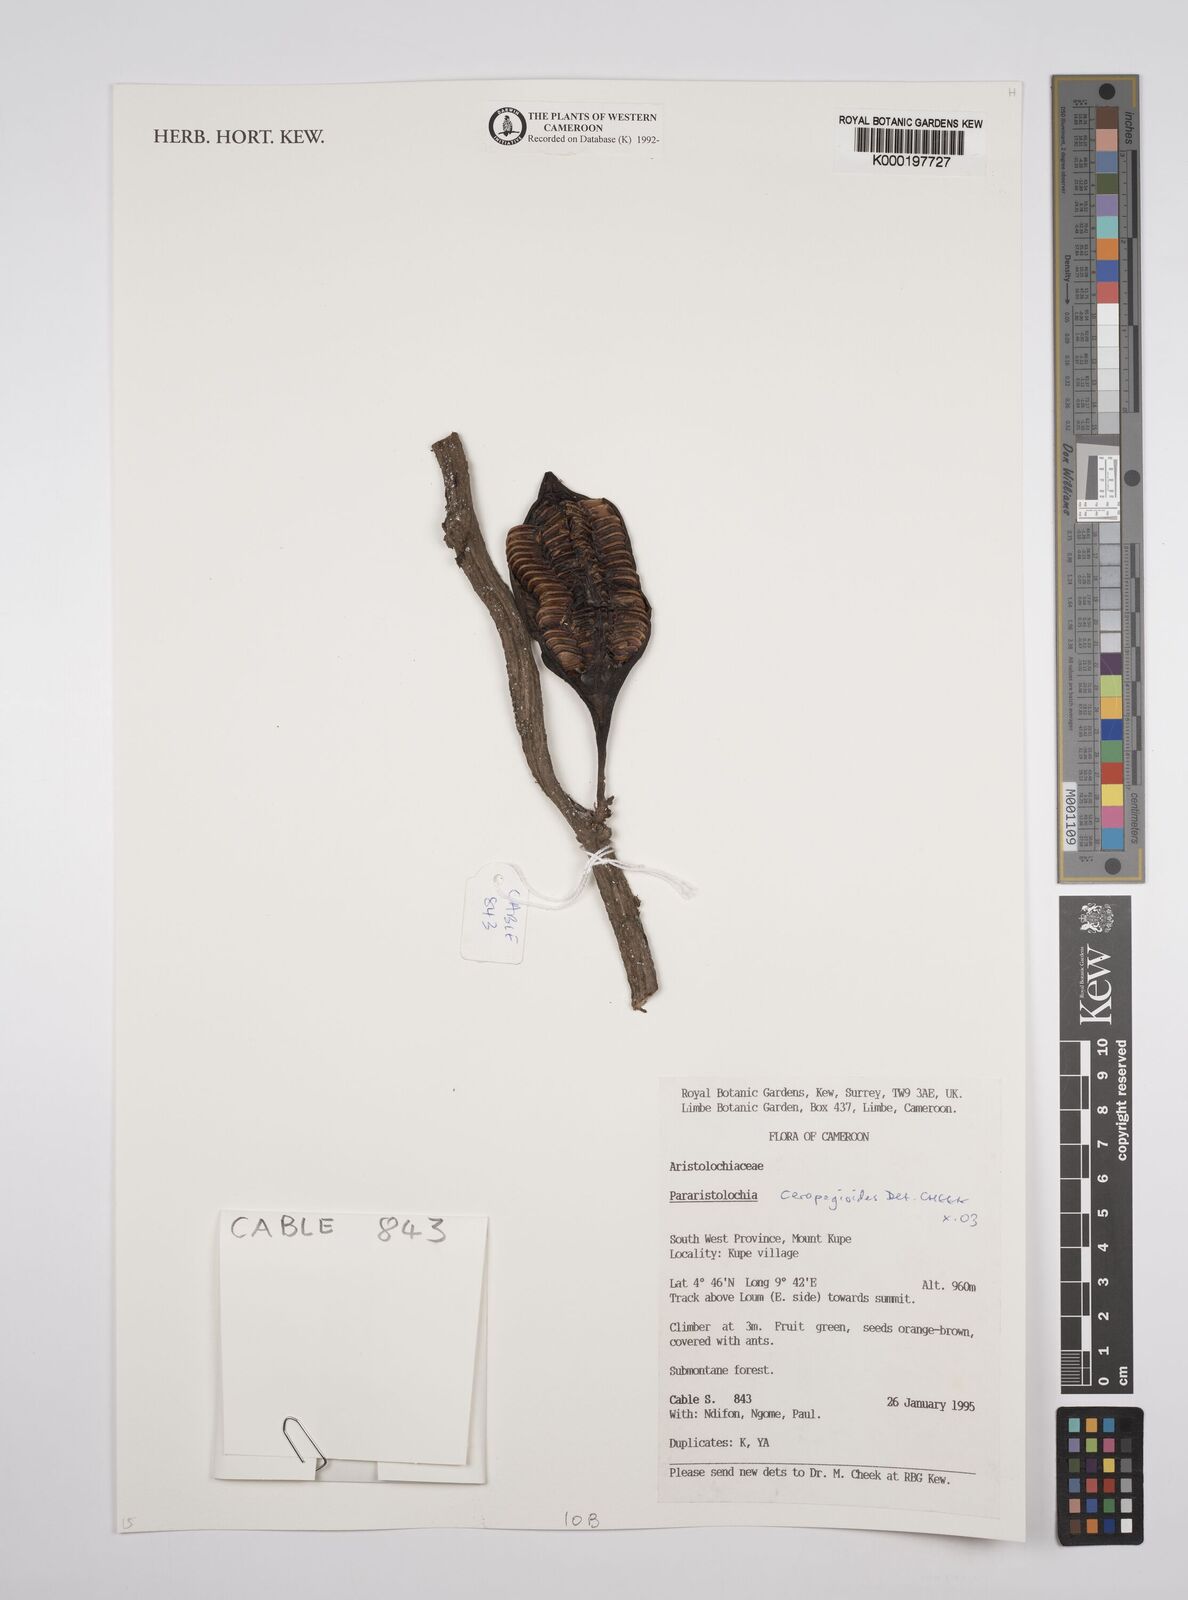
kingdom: Plantae
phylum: Tracheophyta
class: Magnoliopsida
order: Piperales
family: Aristolochiaceae
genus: Aristolochia
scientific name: Aristolochia ceropegioides
